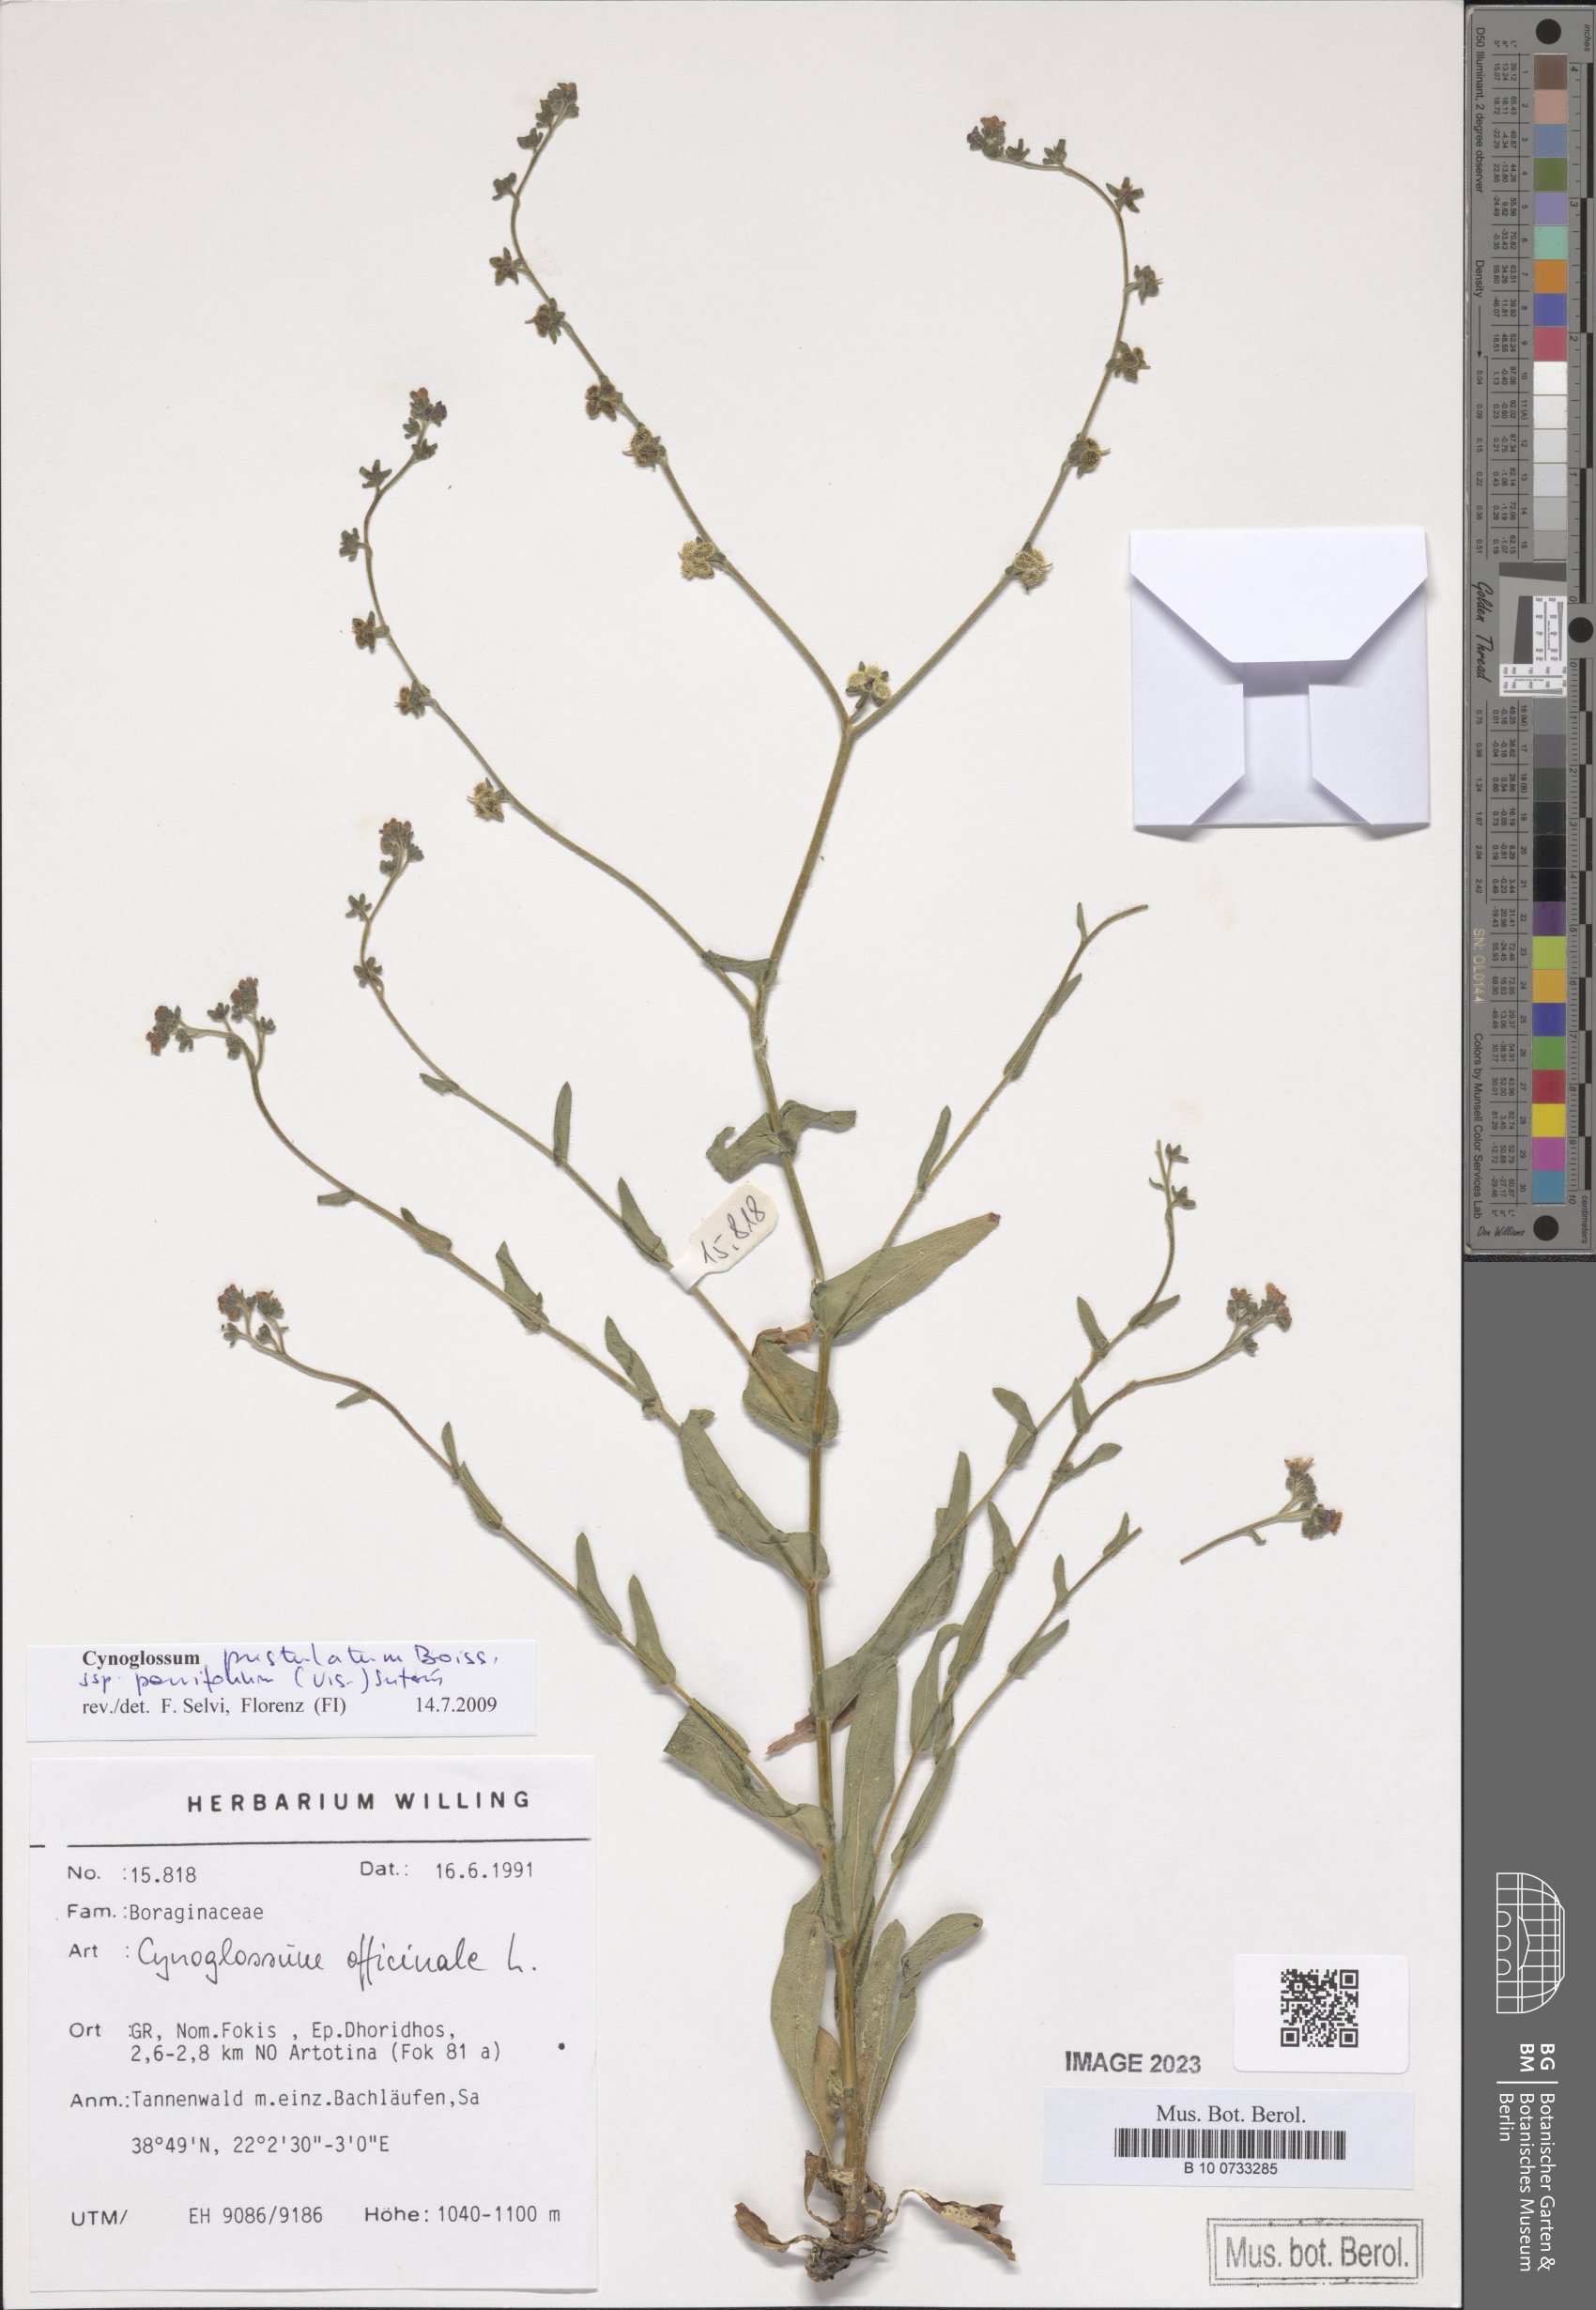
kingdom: Plantae
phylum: Tracheophyta
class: Magnoliopsida
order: Boraginales
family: Boraginaceae
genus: Cynoglossum
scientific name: Cynoglossum pustulatum
